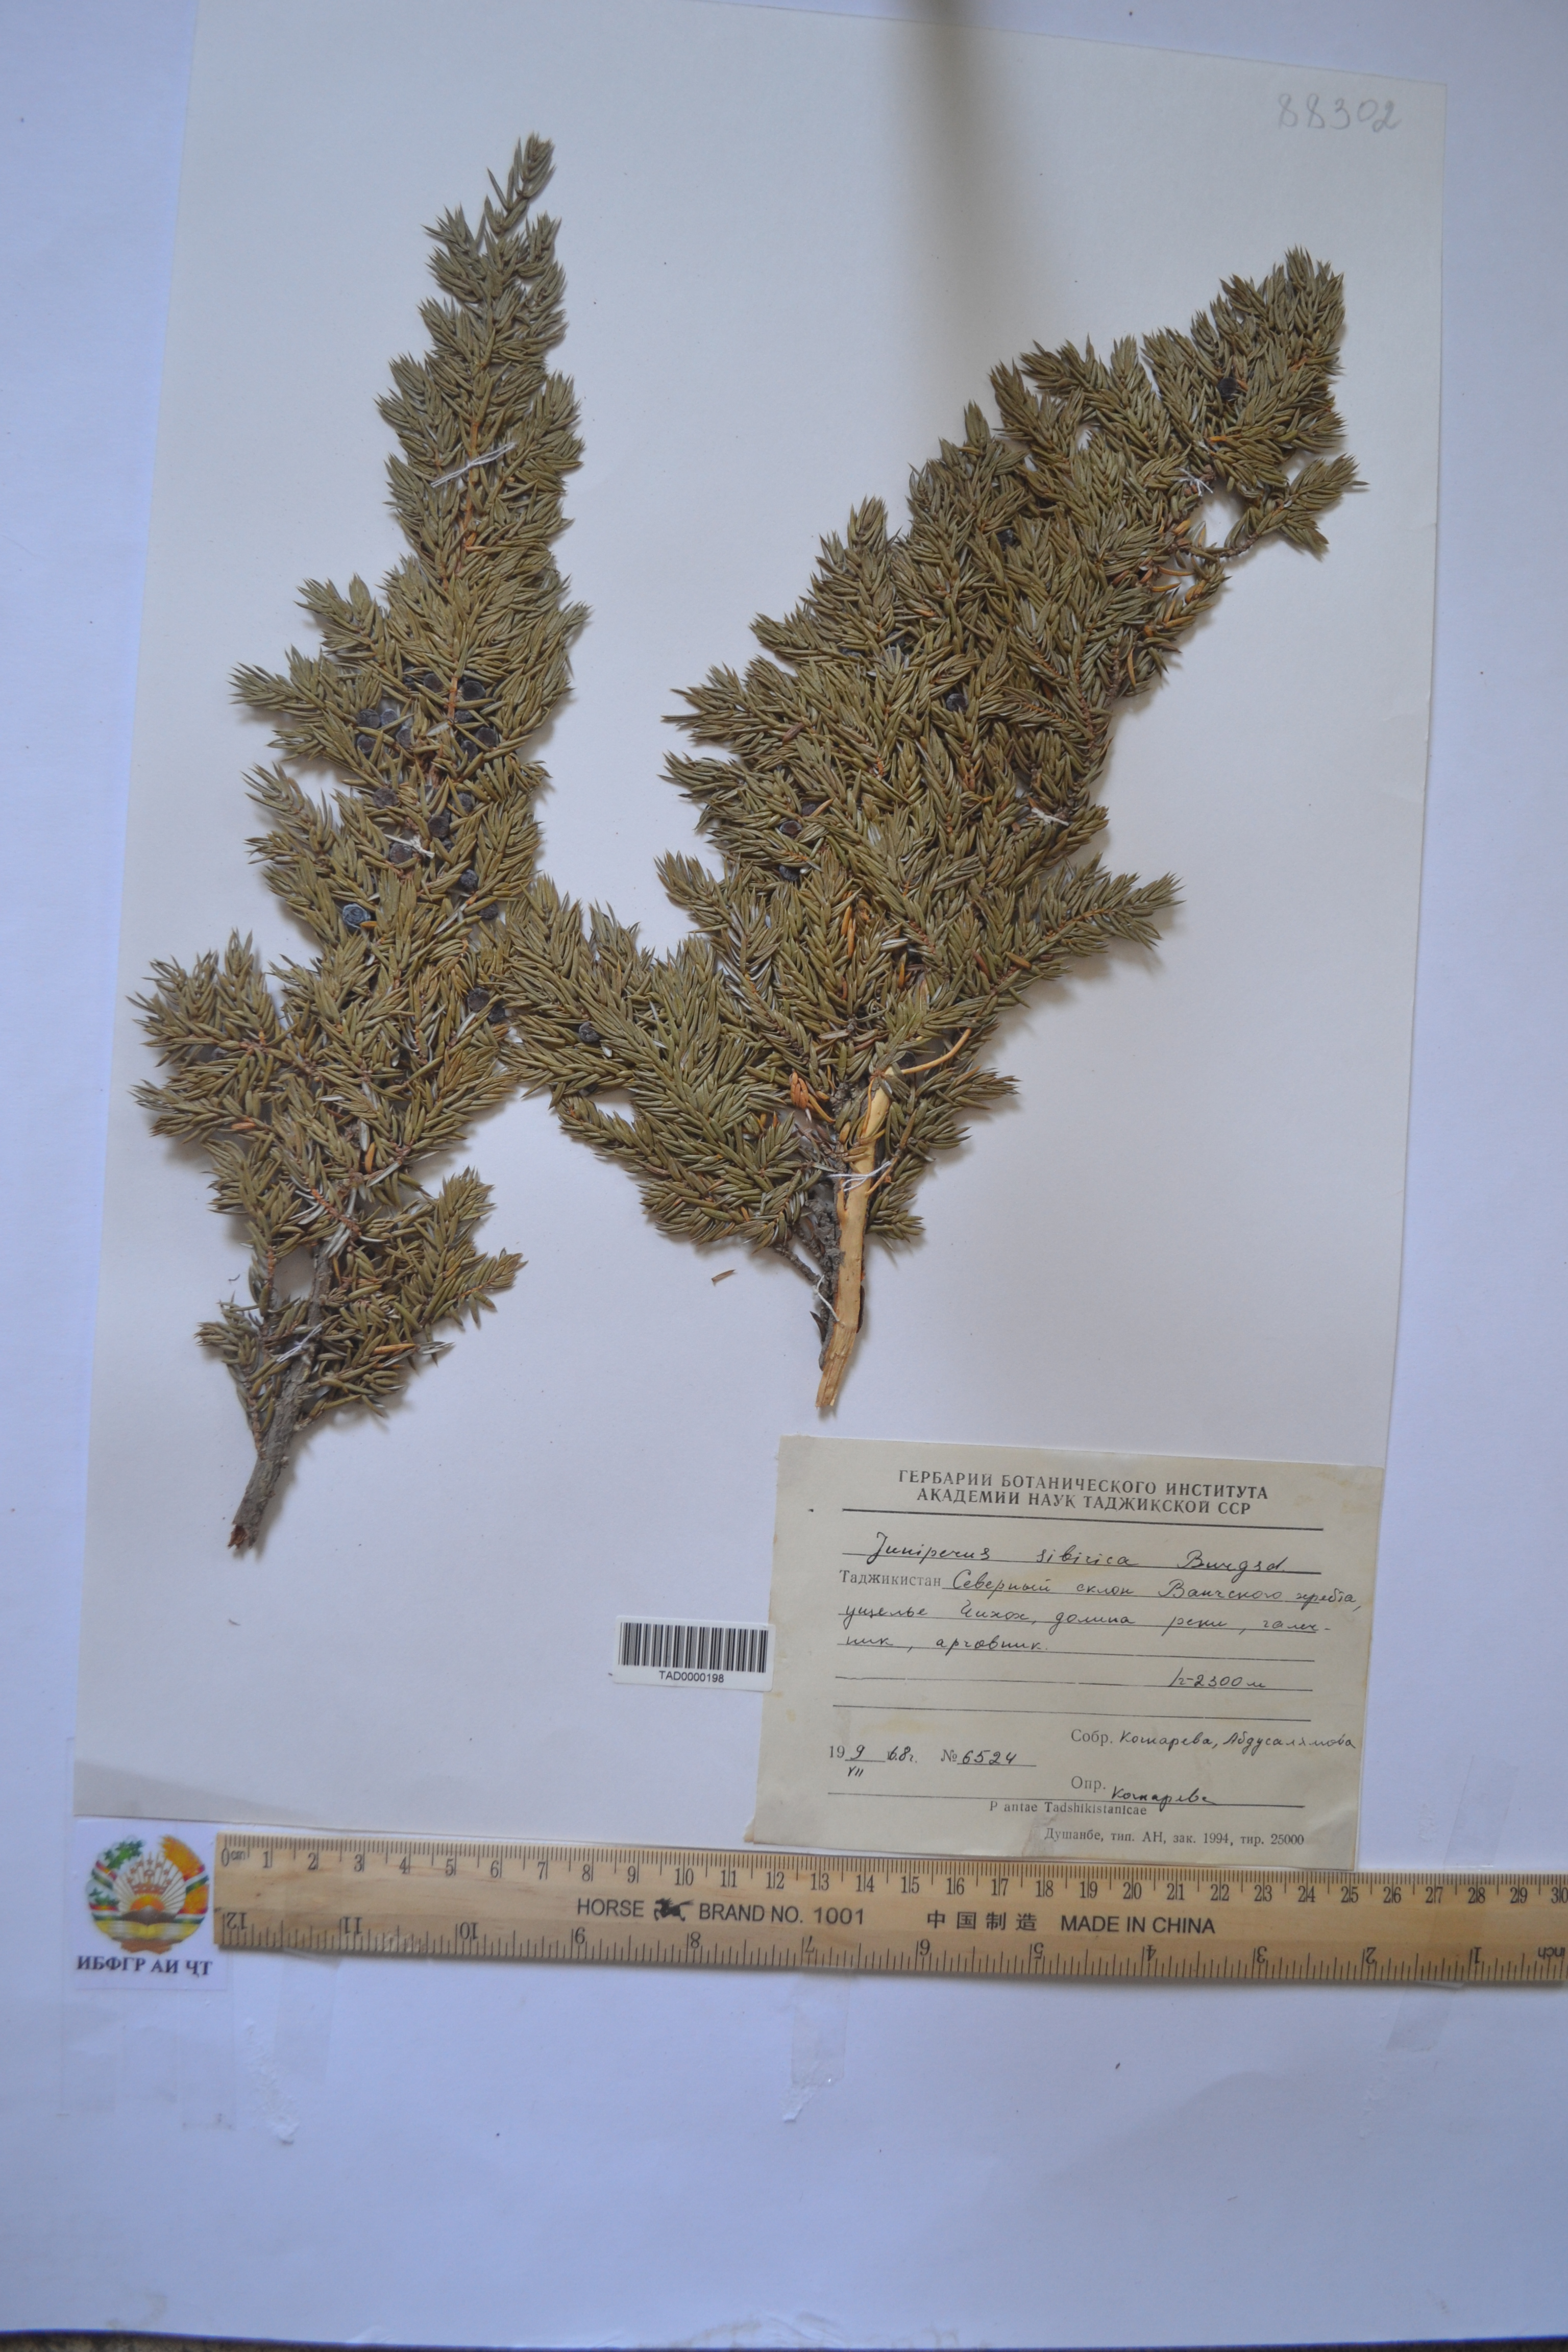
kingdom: Plantae
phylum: Tracheophyta
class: Pinopsida
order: Pinales
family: Cupressaceae
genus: Juniperus
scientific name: Juniperus communis
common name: Common juniper
